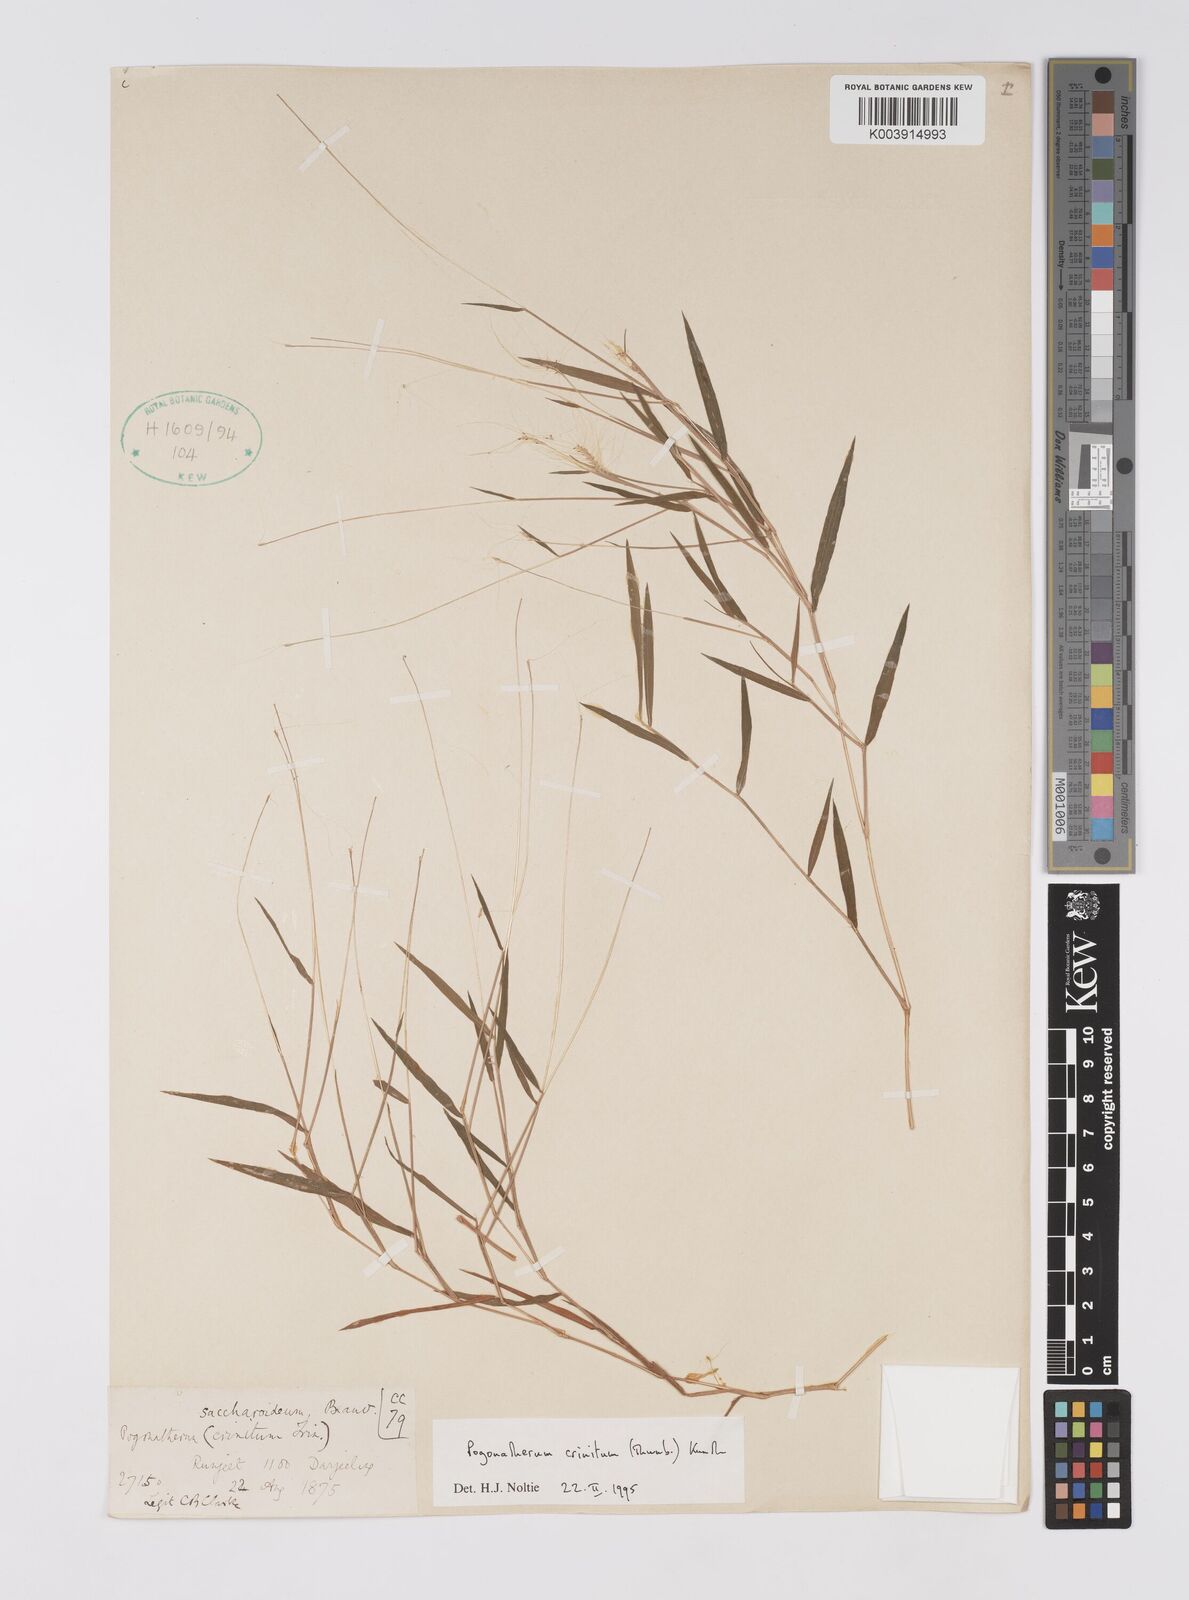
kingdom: Plantae
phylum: Tracheophyta
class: Liliopsida
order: Poales
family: Poaceae
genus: Pogonatherum
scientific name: Pogonatherum crinitum
